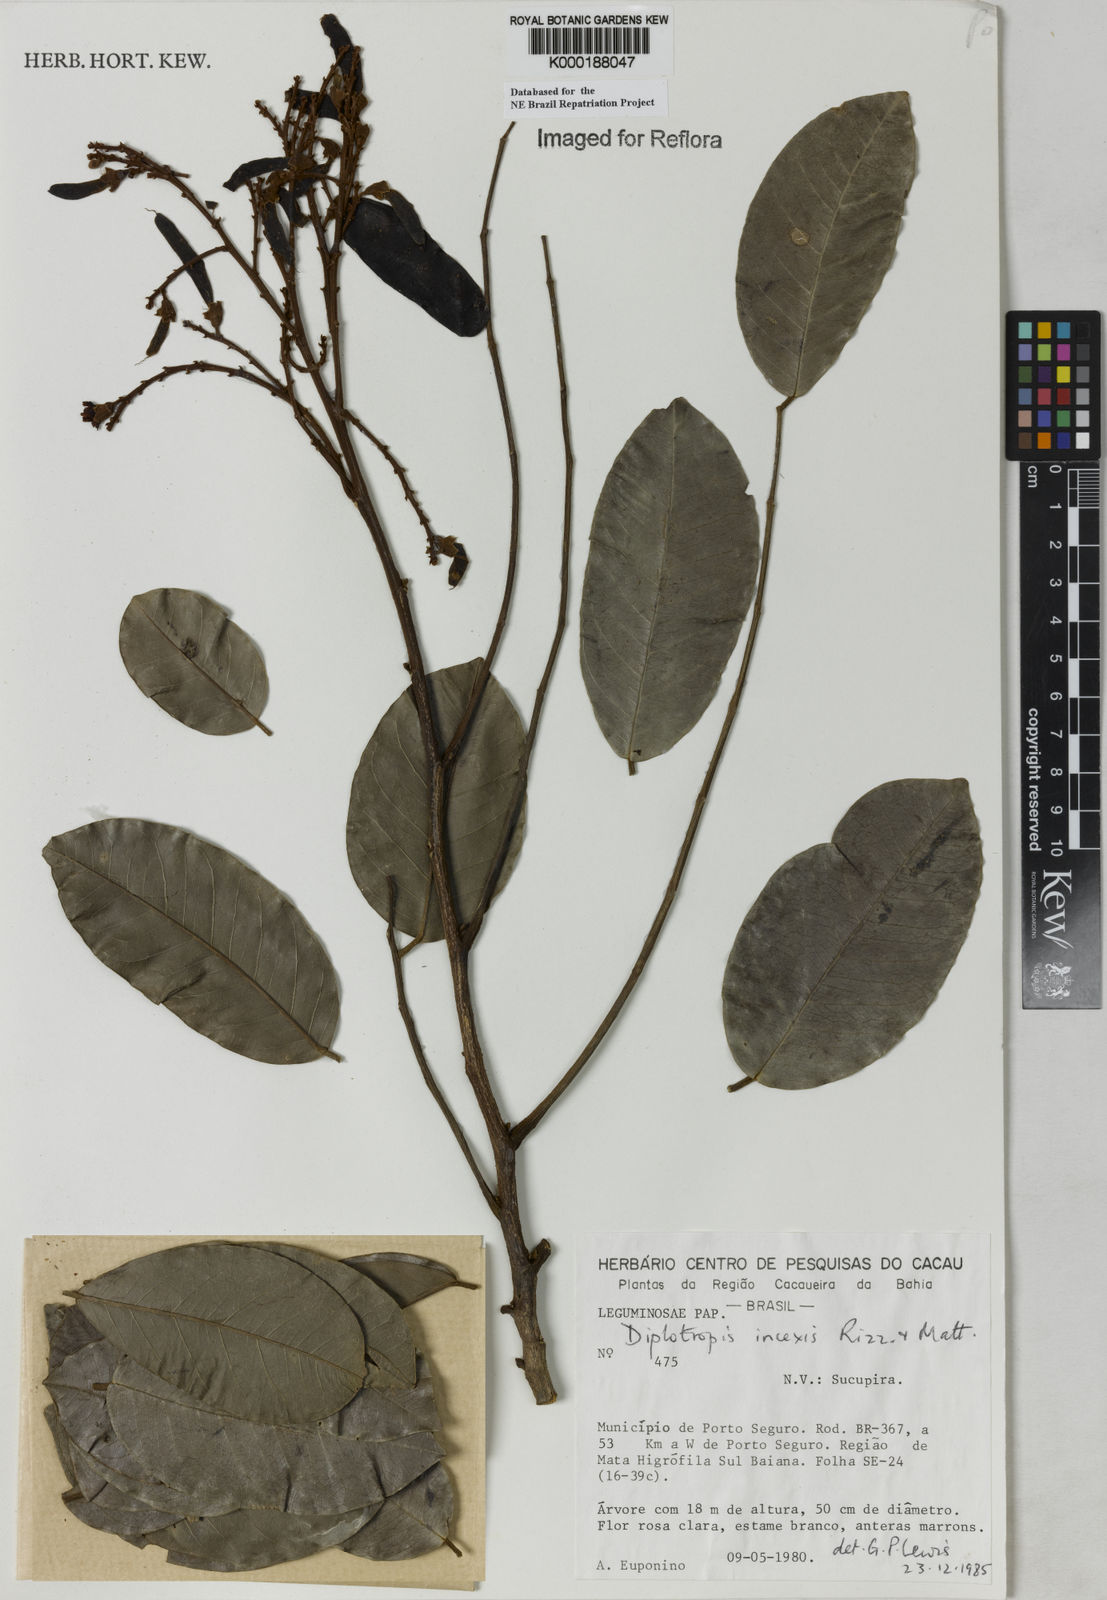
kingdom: Plantae
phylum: Tracheophyta
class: Magnoliopsida
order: Fabales
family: Fabaceae
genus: Diplotropis
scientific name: Diplotropis incexis
